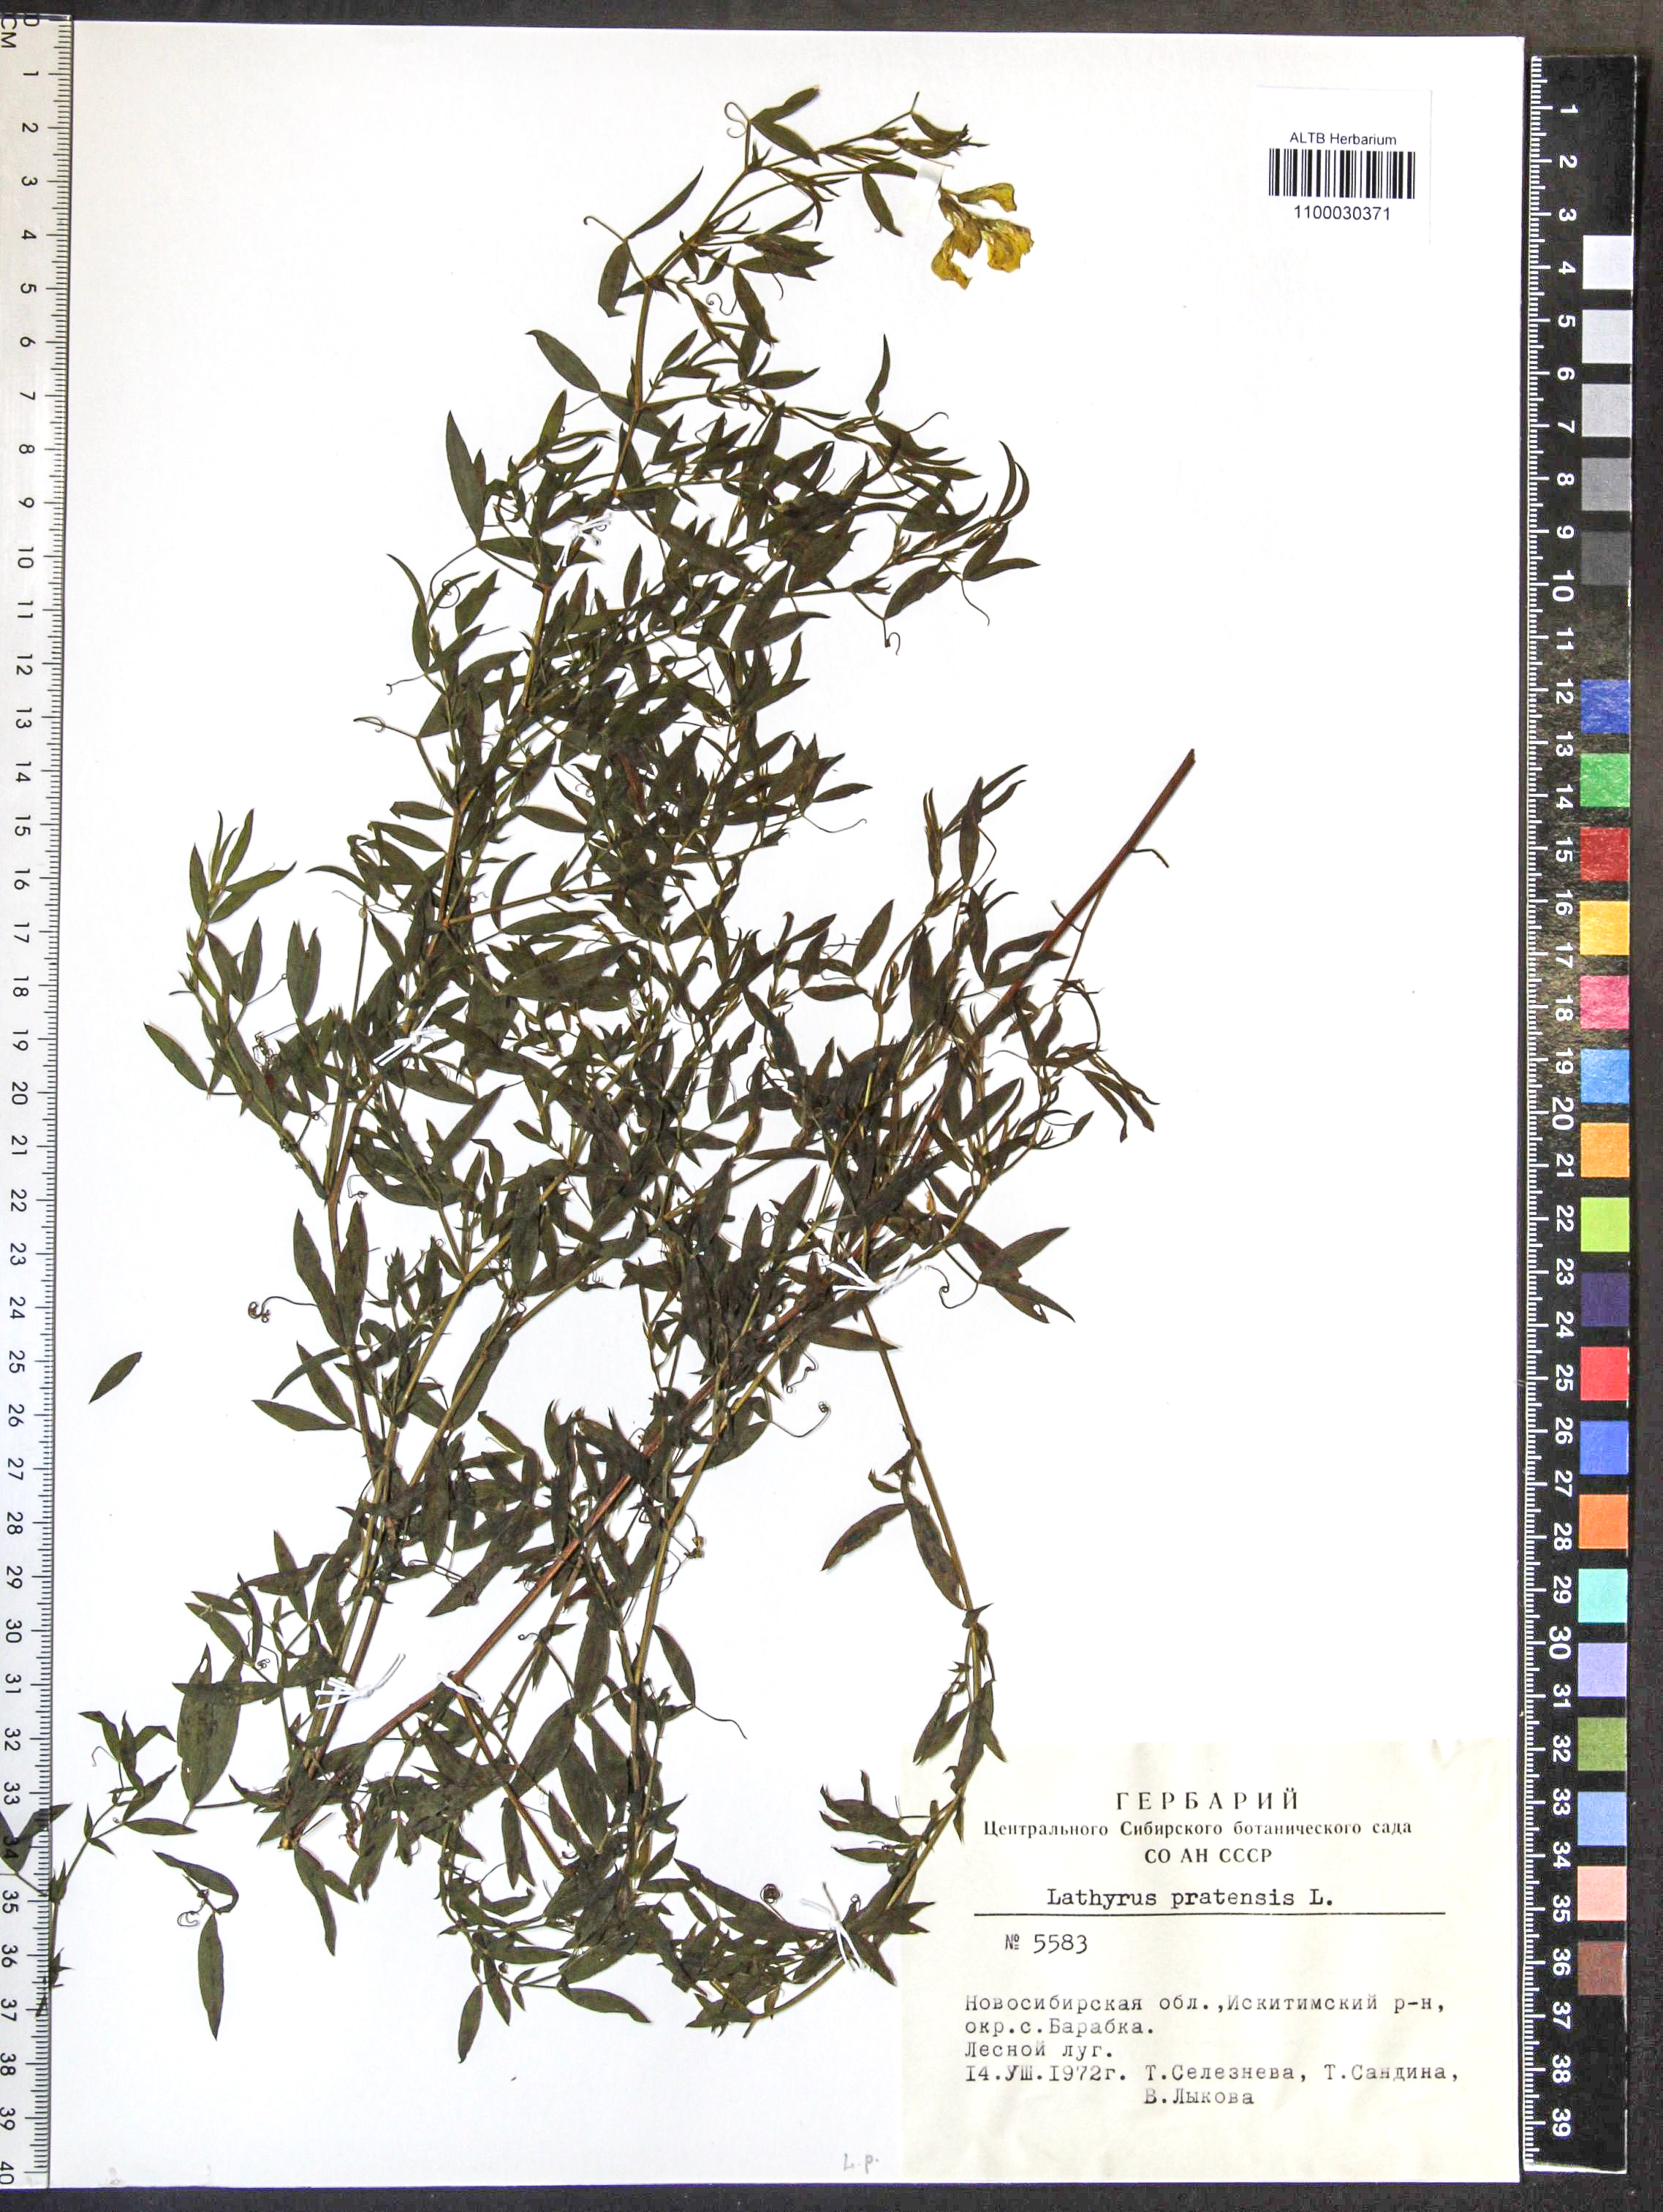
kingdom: Plantae
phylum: Tracheophyta
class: Magnoliopsida
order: Fabales
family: Fabaceae
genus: Lathyrus
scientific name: Lathyrus pratensis
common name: Meadow vetchling
